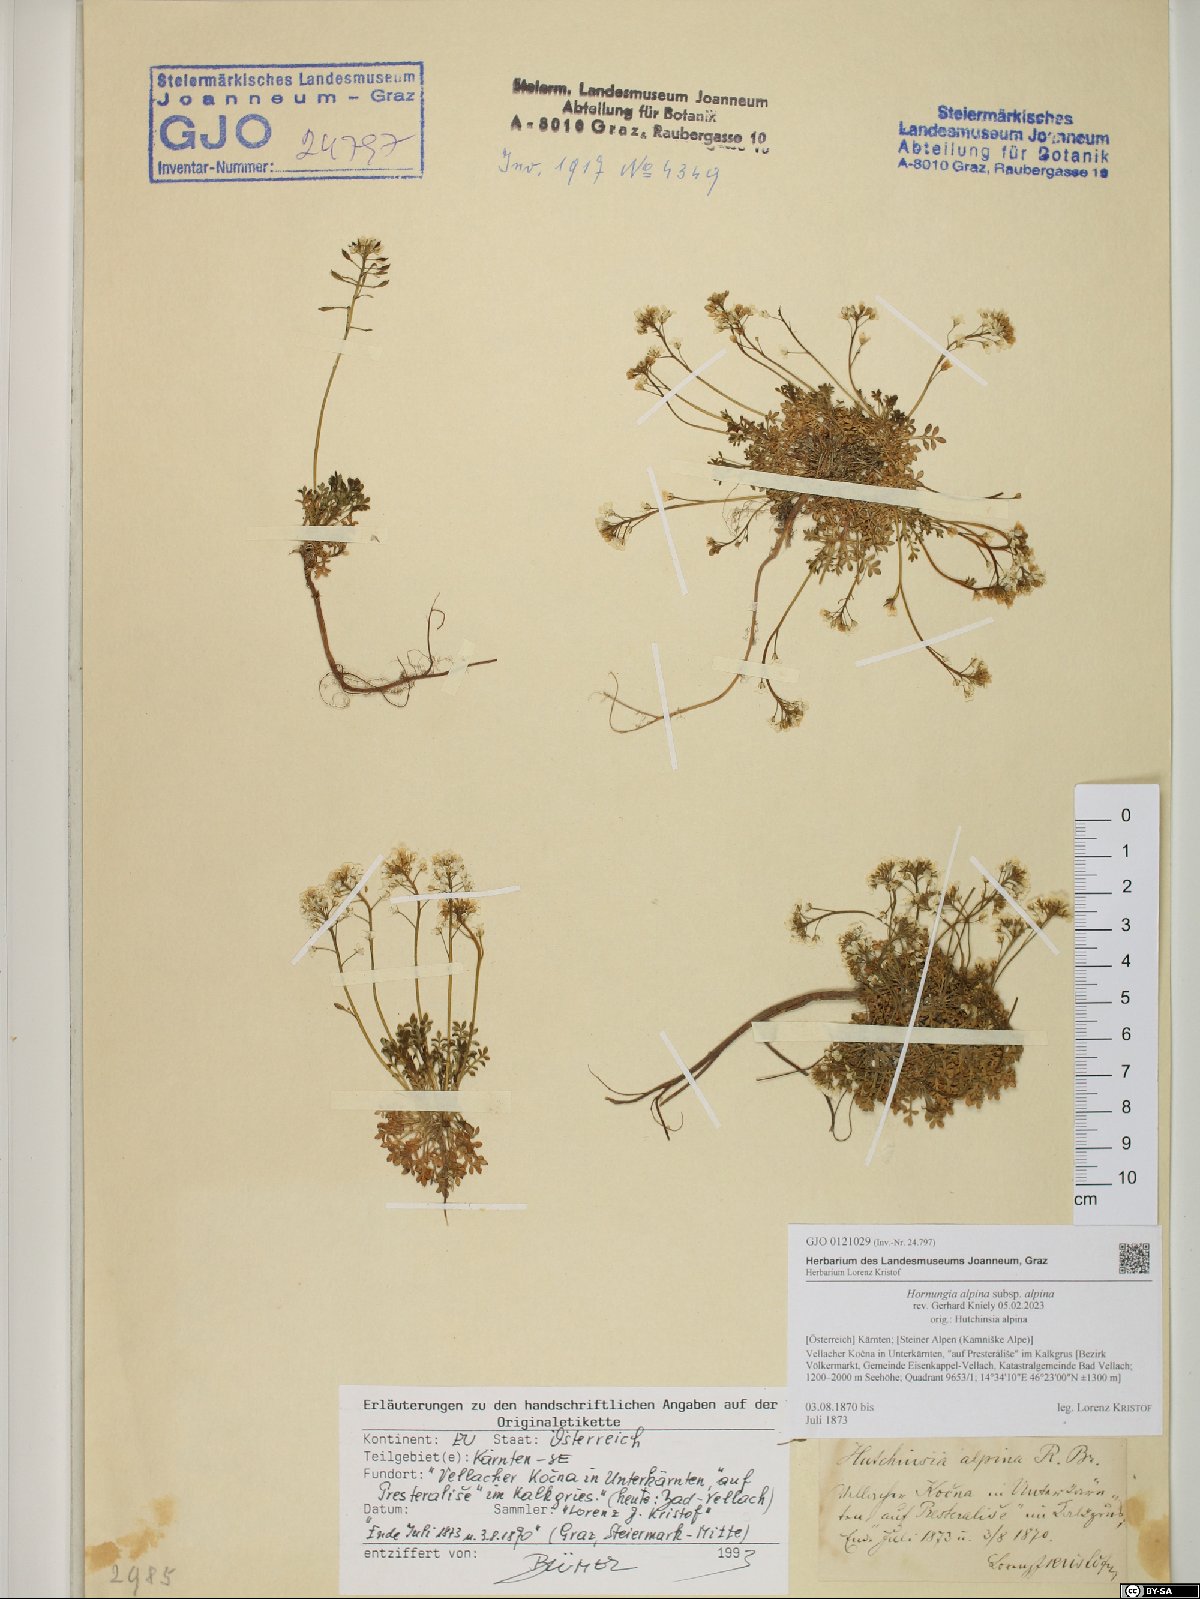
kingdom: Plantae
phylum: Tracheophyta
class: Magnoliopsida
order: Brassicales
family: Brassicaceae
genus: Hornungia
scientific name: Hornungia alpina
